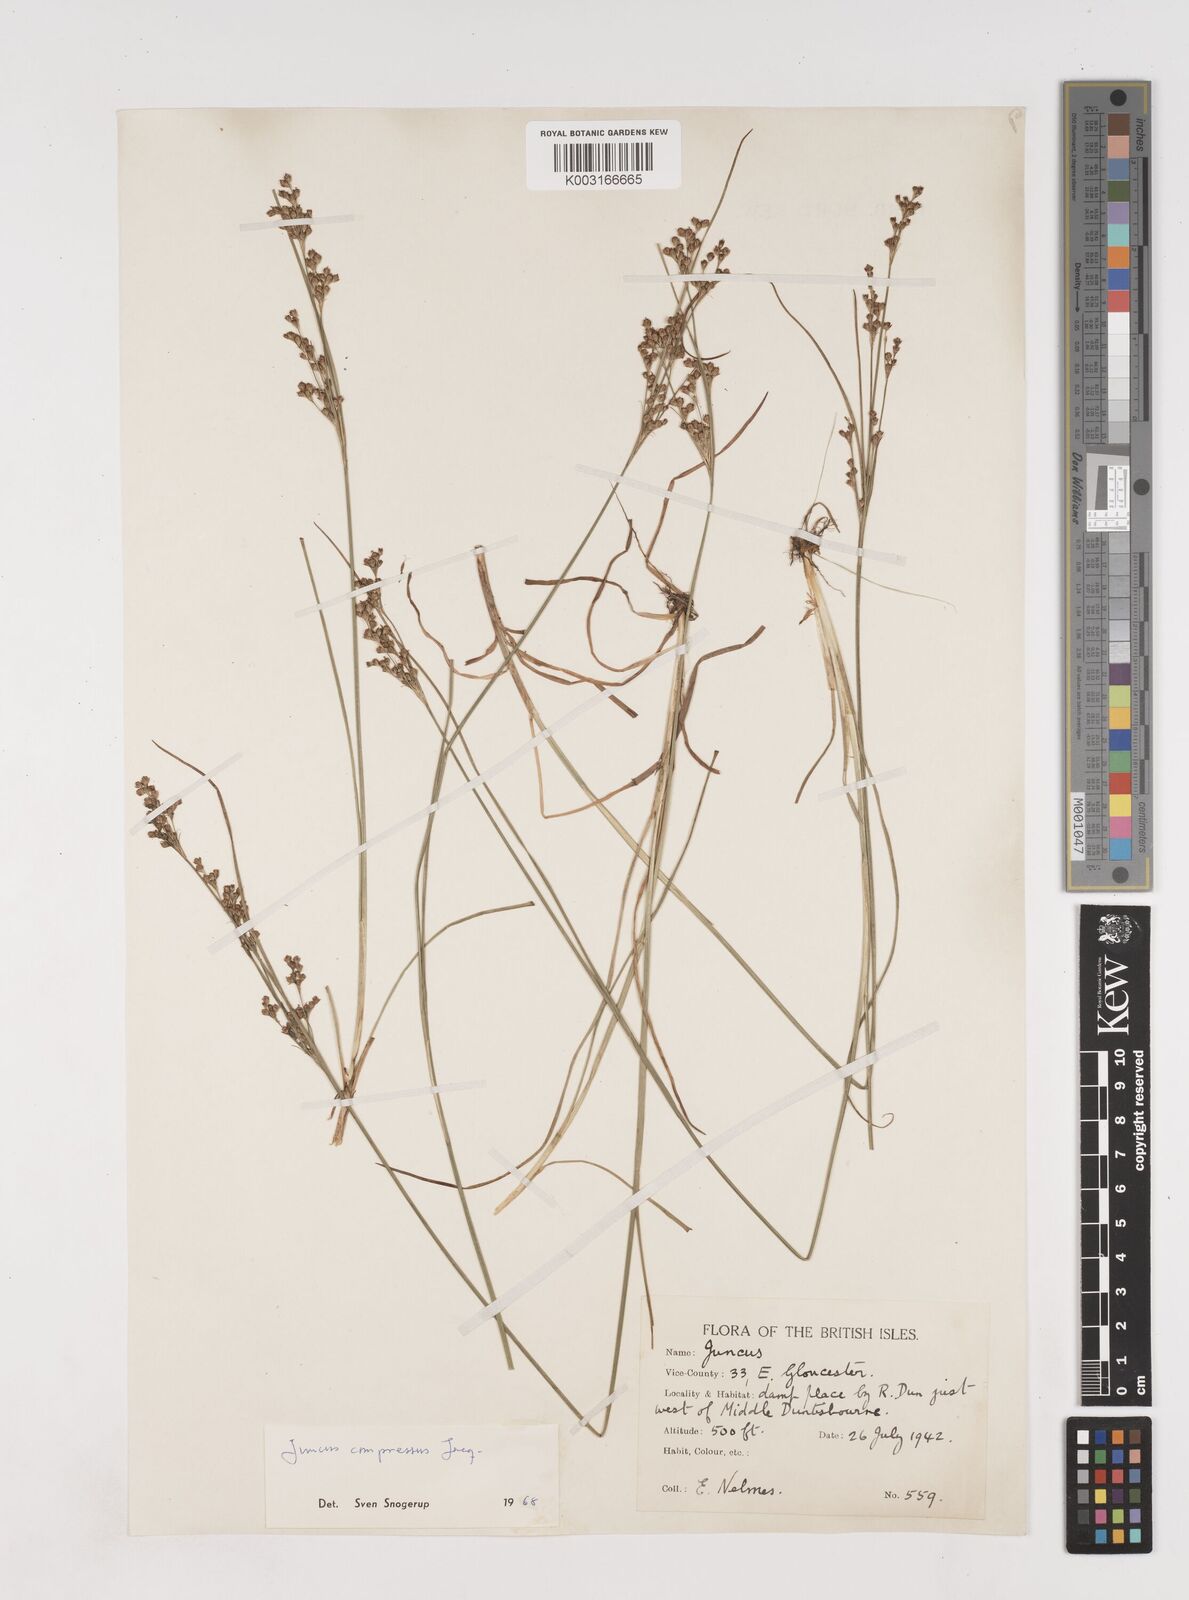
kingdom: Plantae
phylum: Tracheophyta
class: Liliopsida
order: Poales
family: Juncaceae
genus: Juncus
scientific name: Juncus compressus
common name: Round-fruited rush
